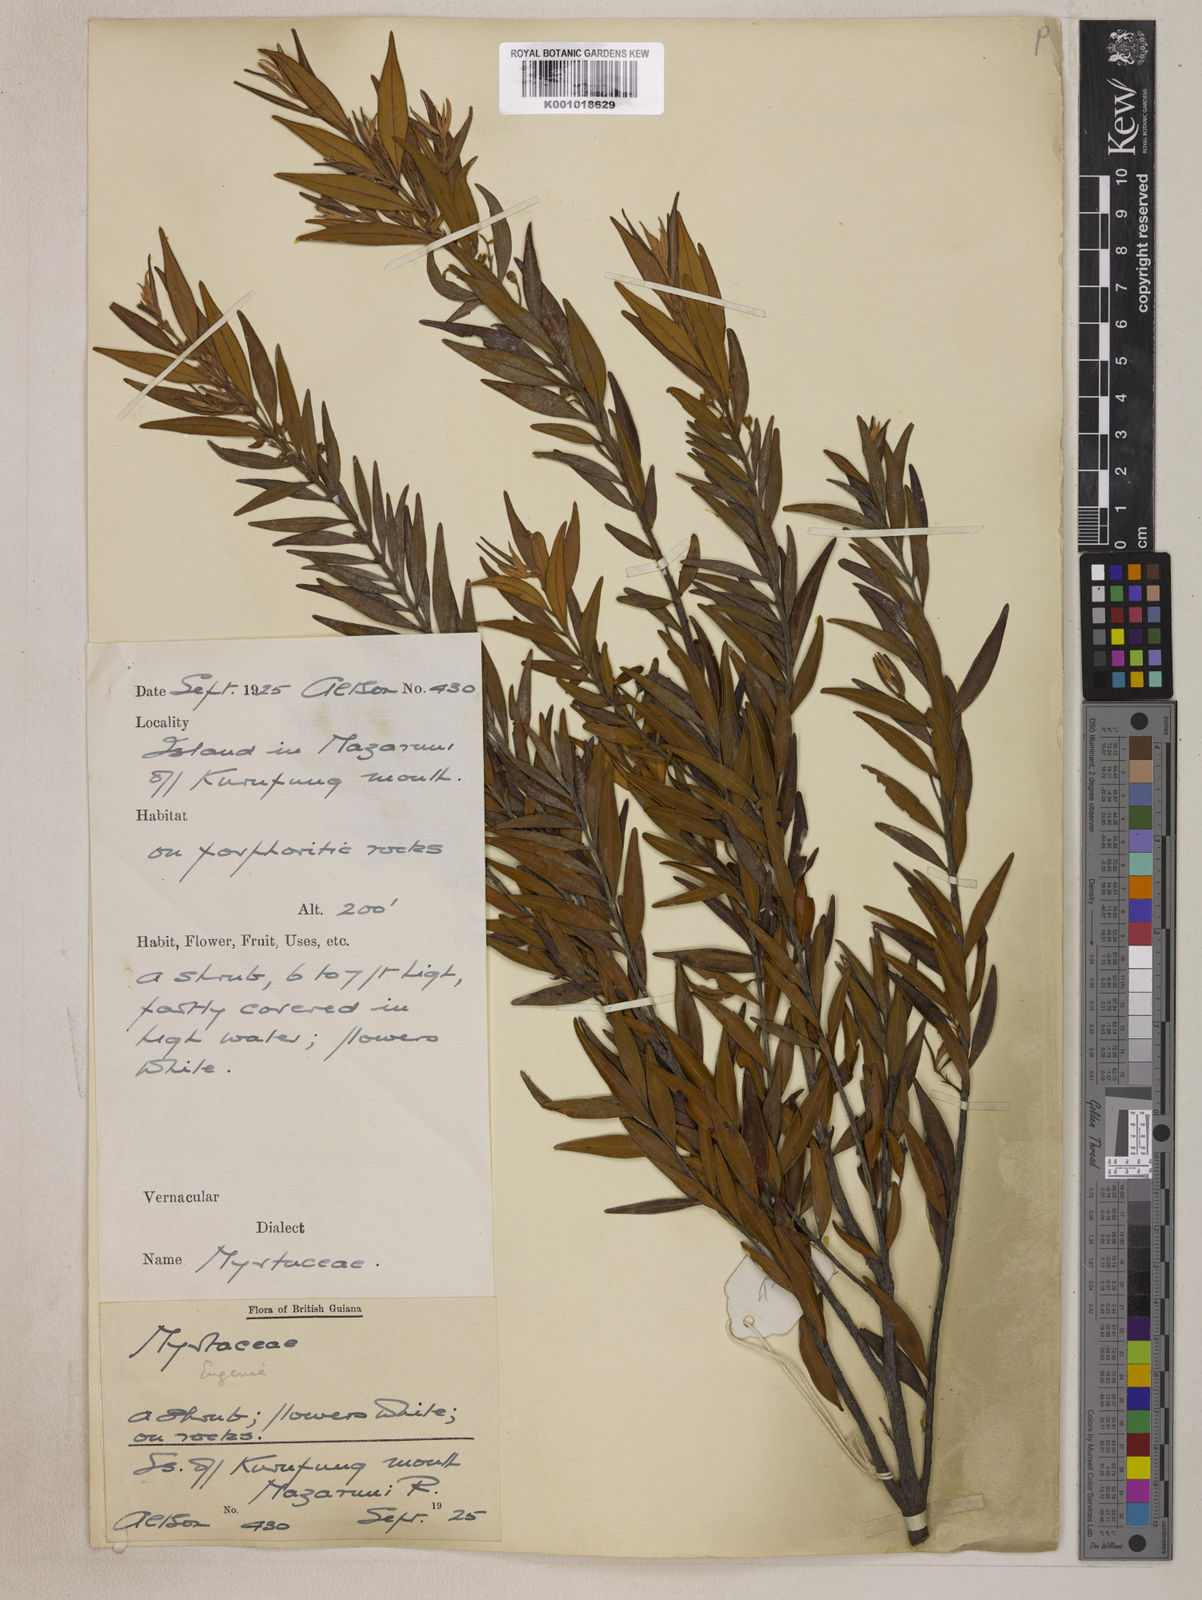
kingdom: Plantae
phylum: Tracheophyta
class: Magnoliopsida
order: Myrtales
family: Myrtaceae
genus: Eugenia
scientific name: Eugenia biflora
